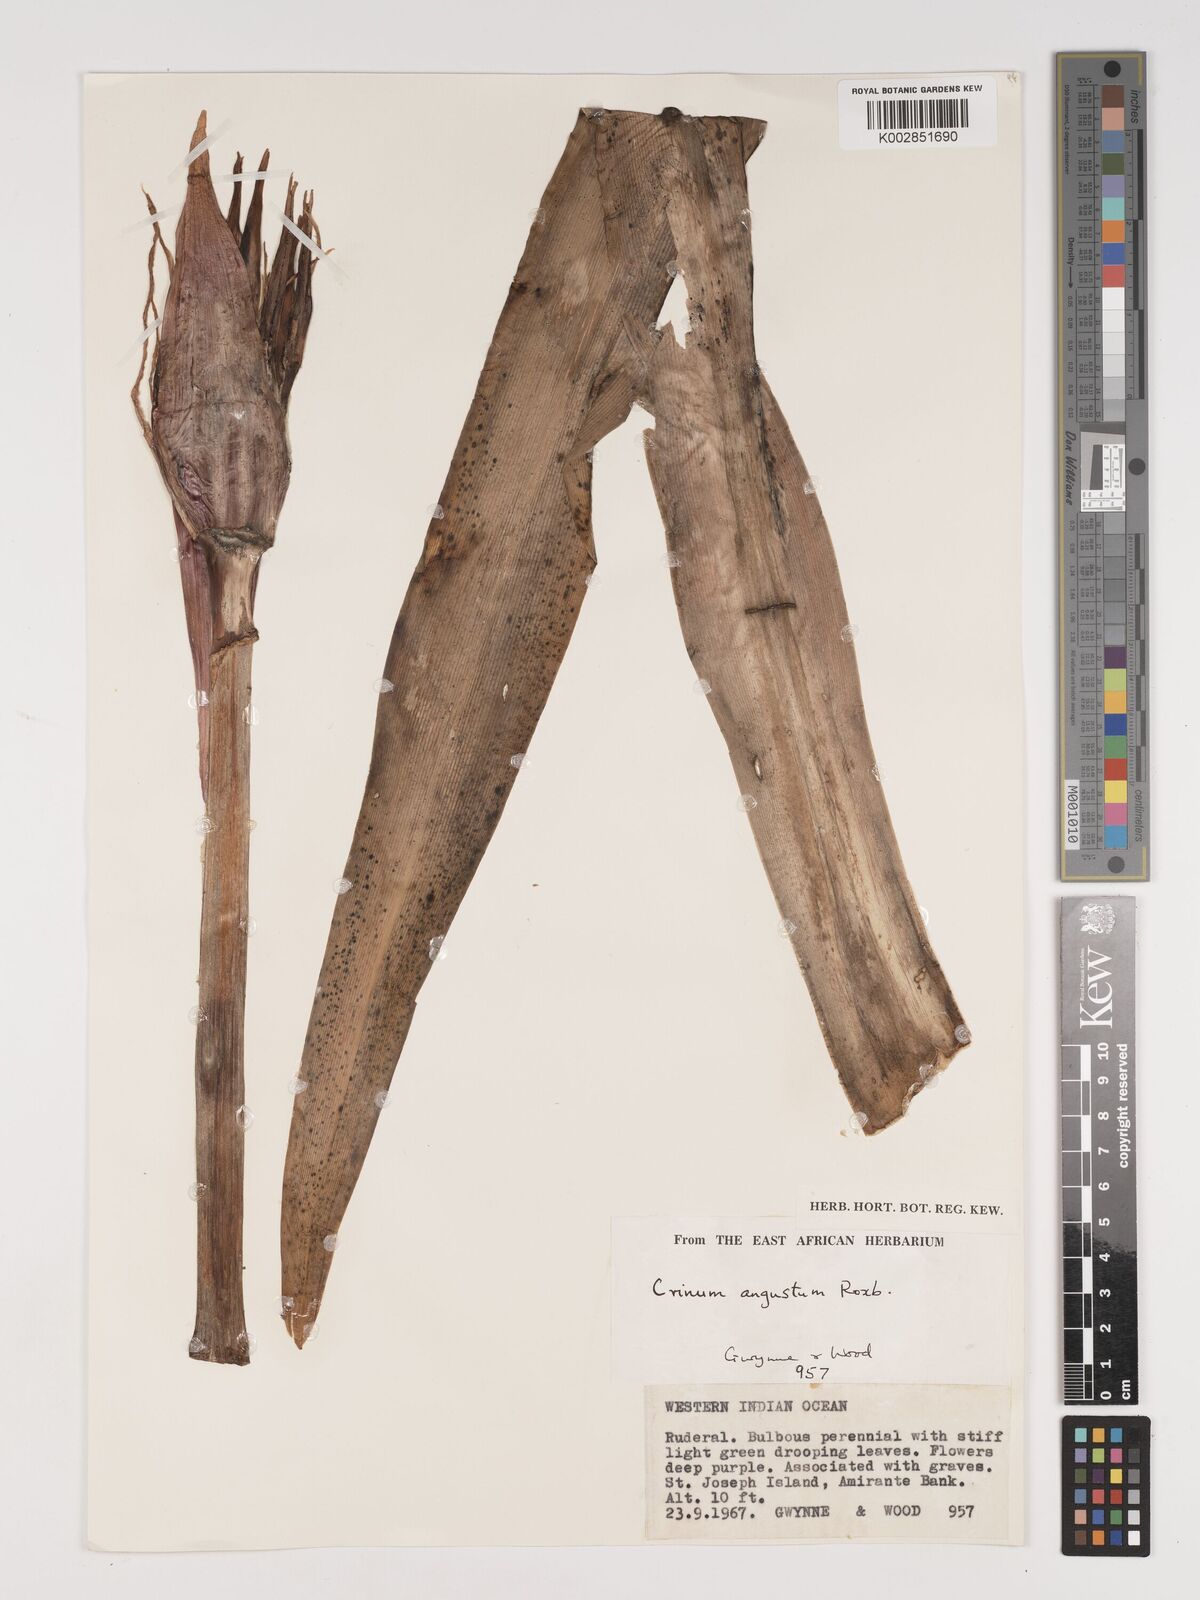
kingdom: Plantae
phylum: Tracheophyta
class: Liliopsida
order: Asparagales
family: Amaryllidaceae
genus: Crinum
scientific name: Crinum amabile
